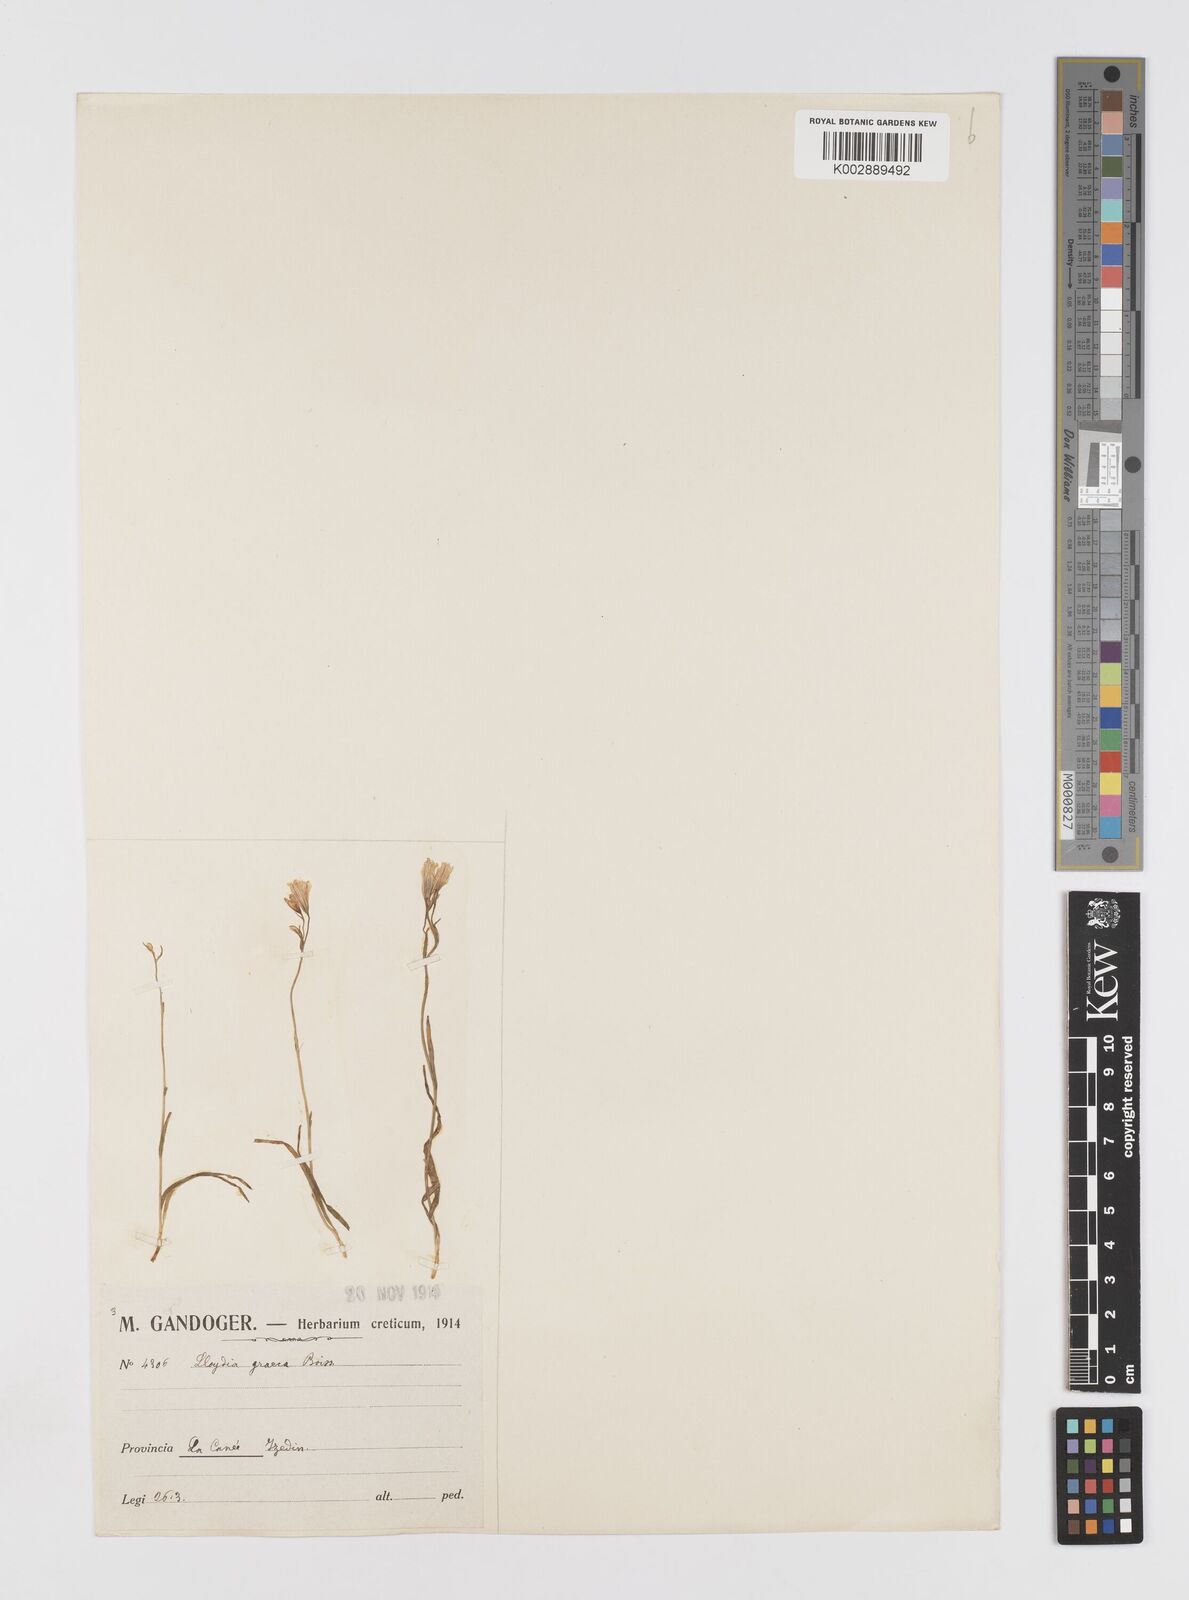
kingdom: Plantae
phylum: Tracheophyta
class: Liliopsida
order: Liliales
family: Liliaceae
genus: Gagea
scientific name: Gagea graeca
